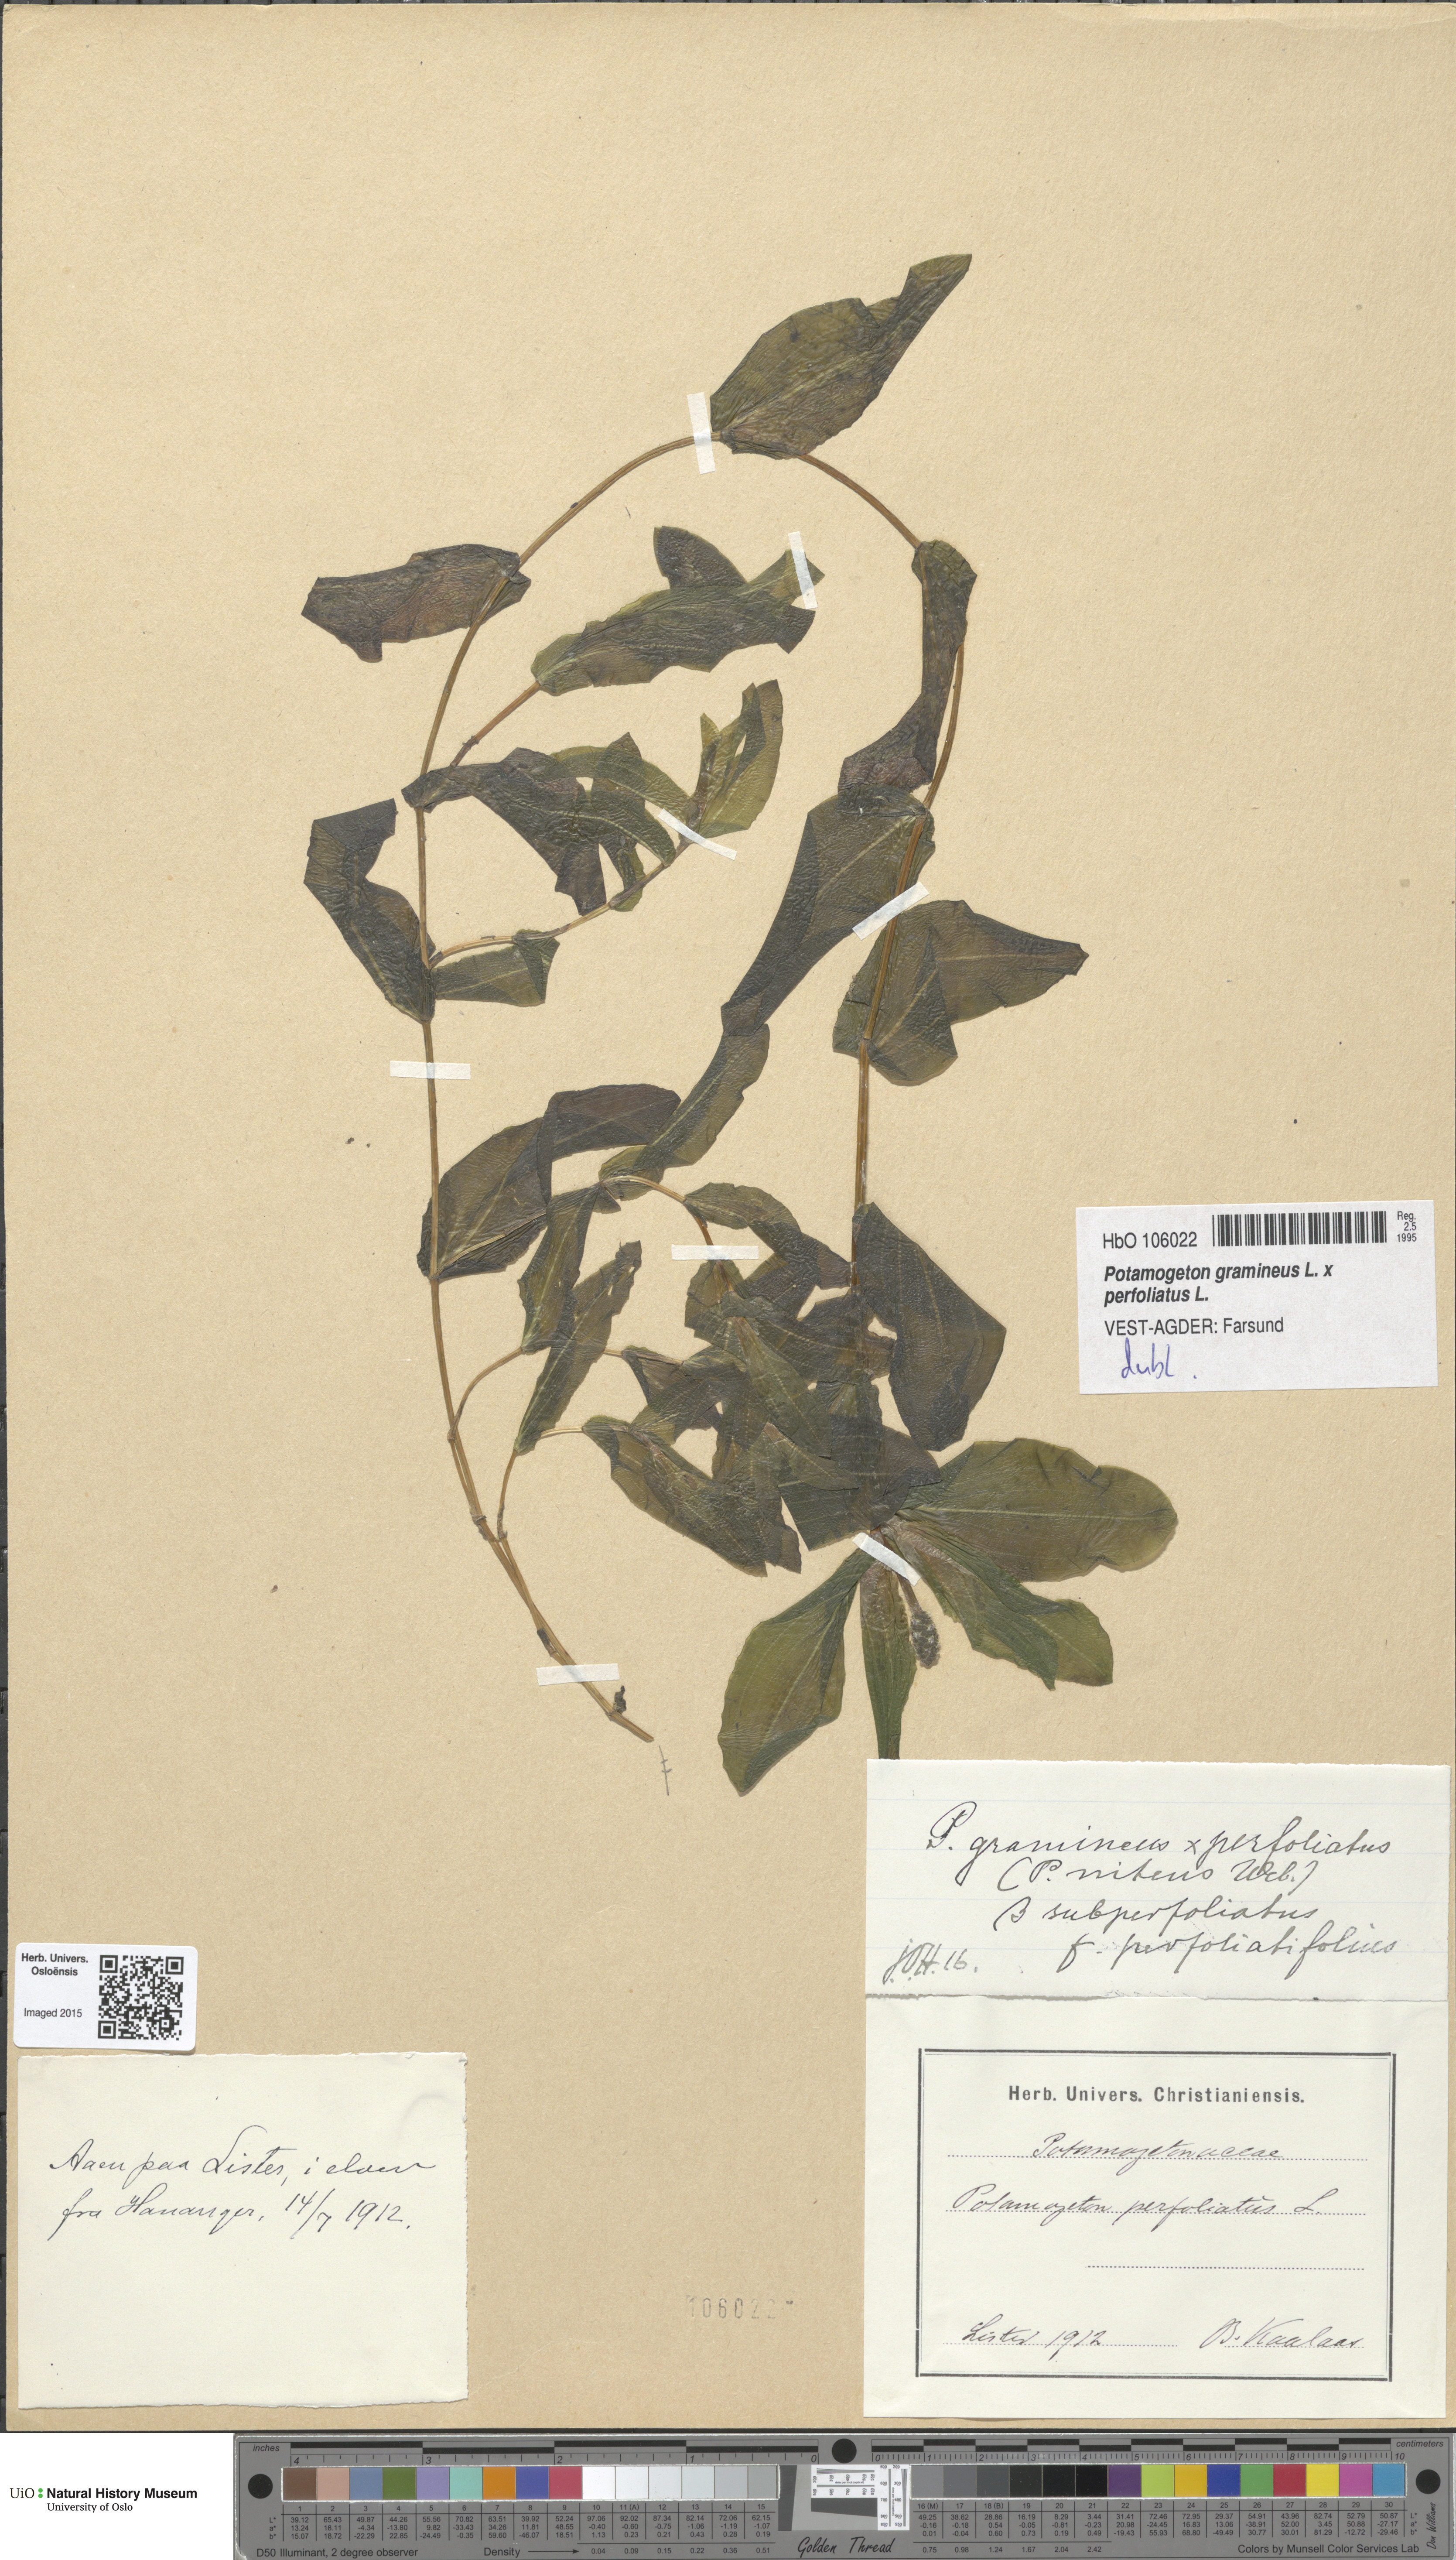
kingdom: Plantae
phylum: Tracheophyta
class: Liliopsida
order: Alismatales
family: Potamogetonaceae
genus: Potamogeton
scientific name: Potamogeton perfoliatus
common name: Perfoliate pondweed
